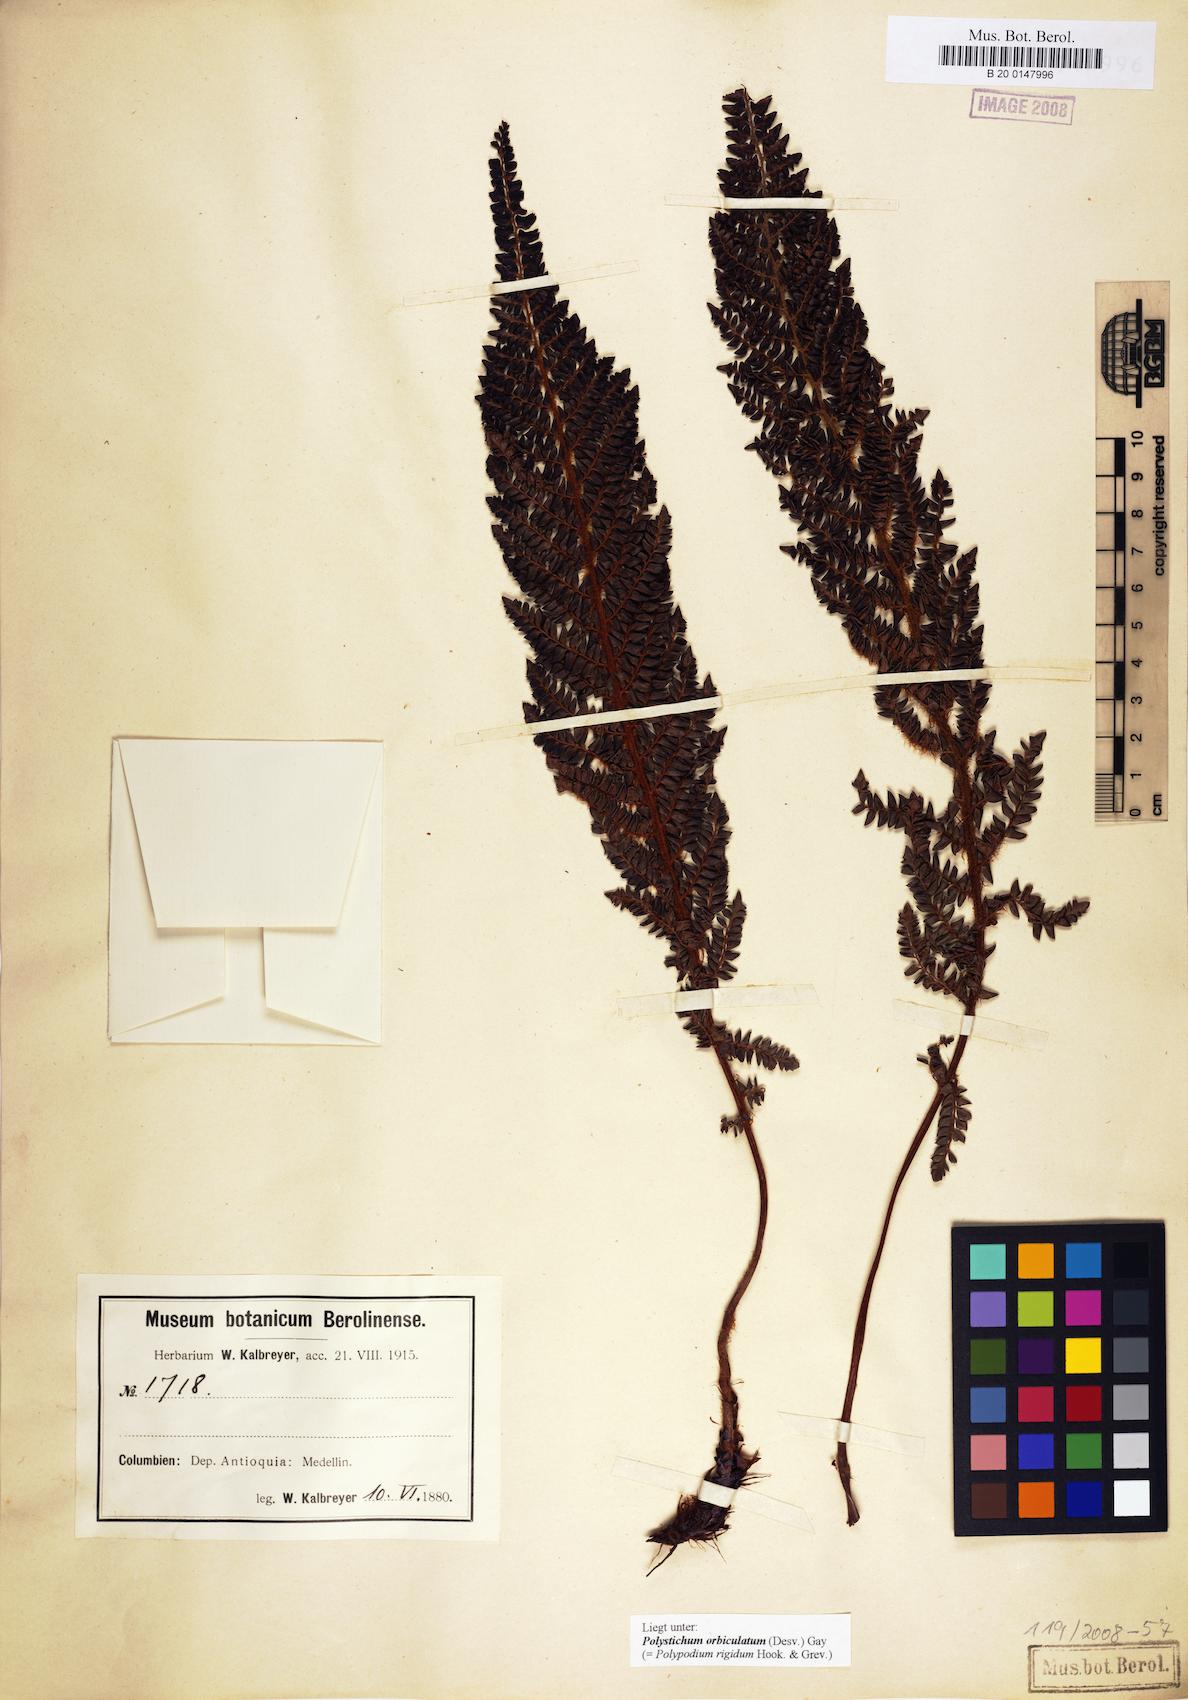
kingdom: Plantae
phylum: Tracheophyta
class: Polypodiopsida
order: Polypodiales
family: Dryopteridaceae
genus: Polystichum
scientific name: Polystichum orbiculatum
